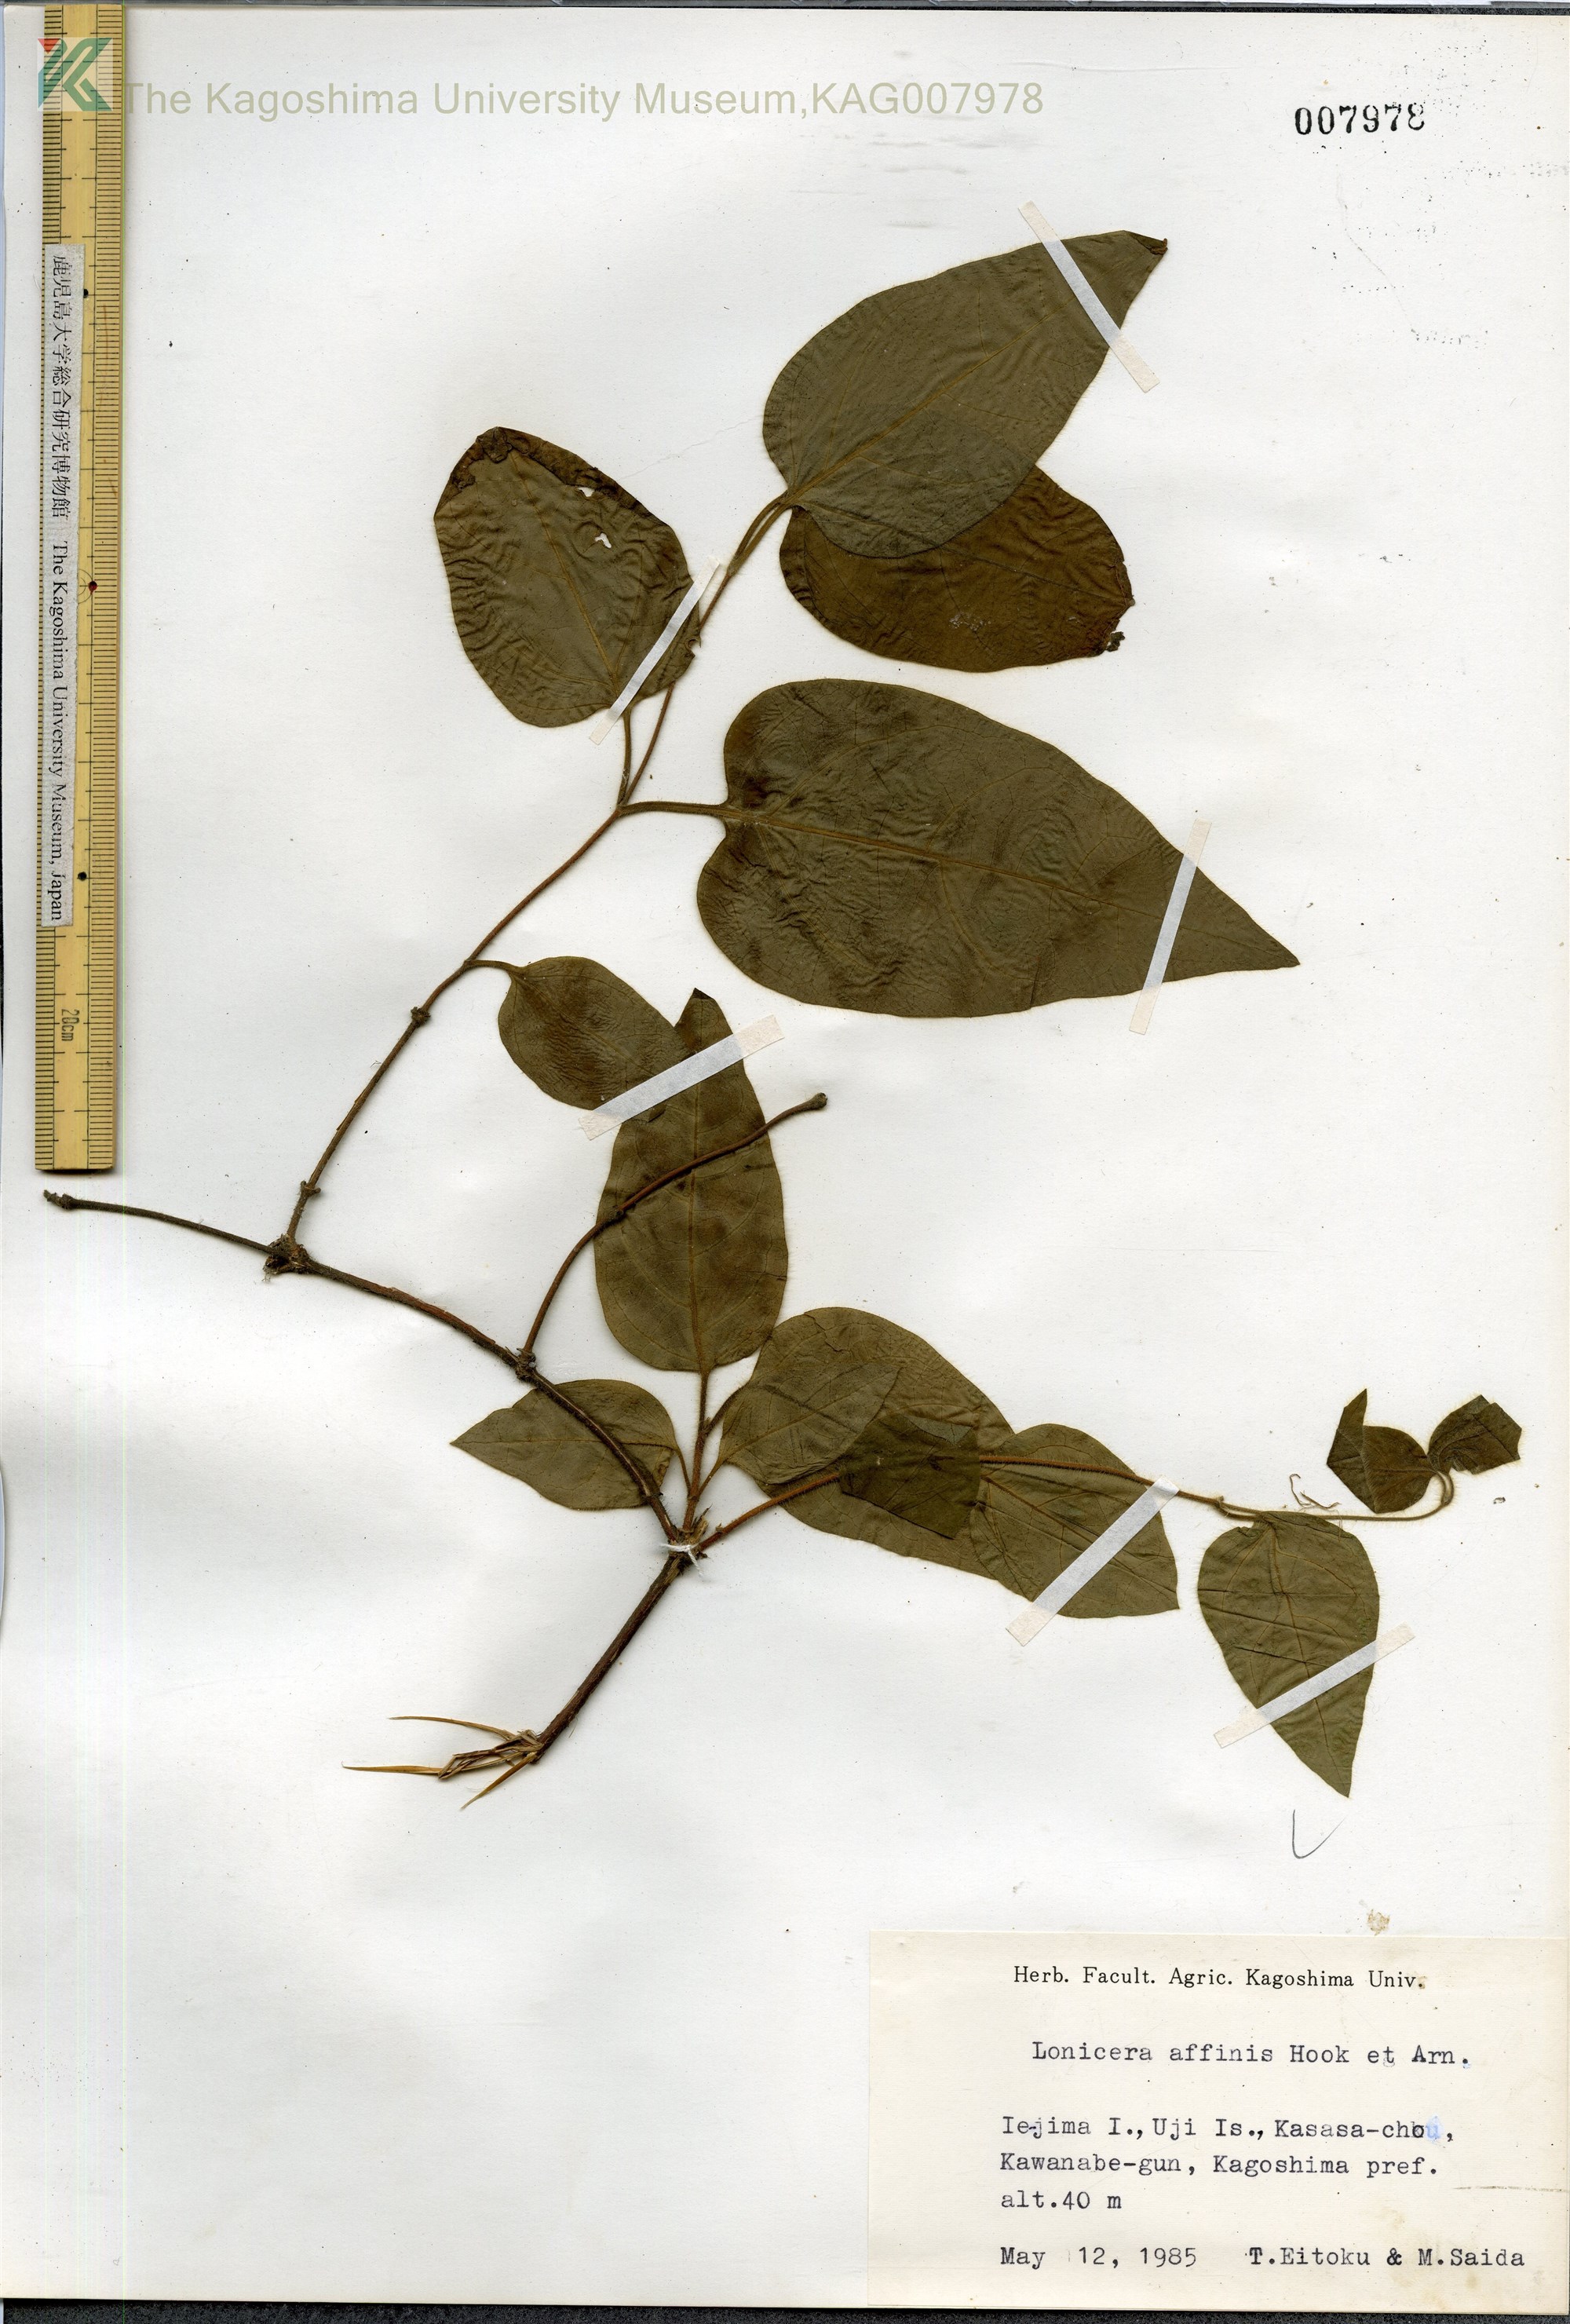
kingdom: Plantae
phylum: Tracheophyta
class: Magnoliopsida
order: Dipsacales
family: Caprifoliaceae
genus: Lonicera
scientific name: Lonicera affinis
